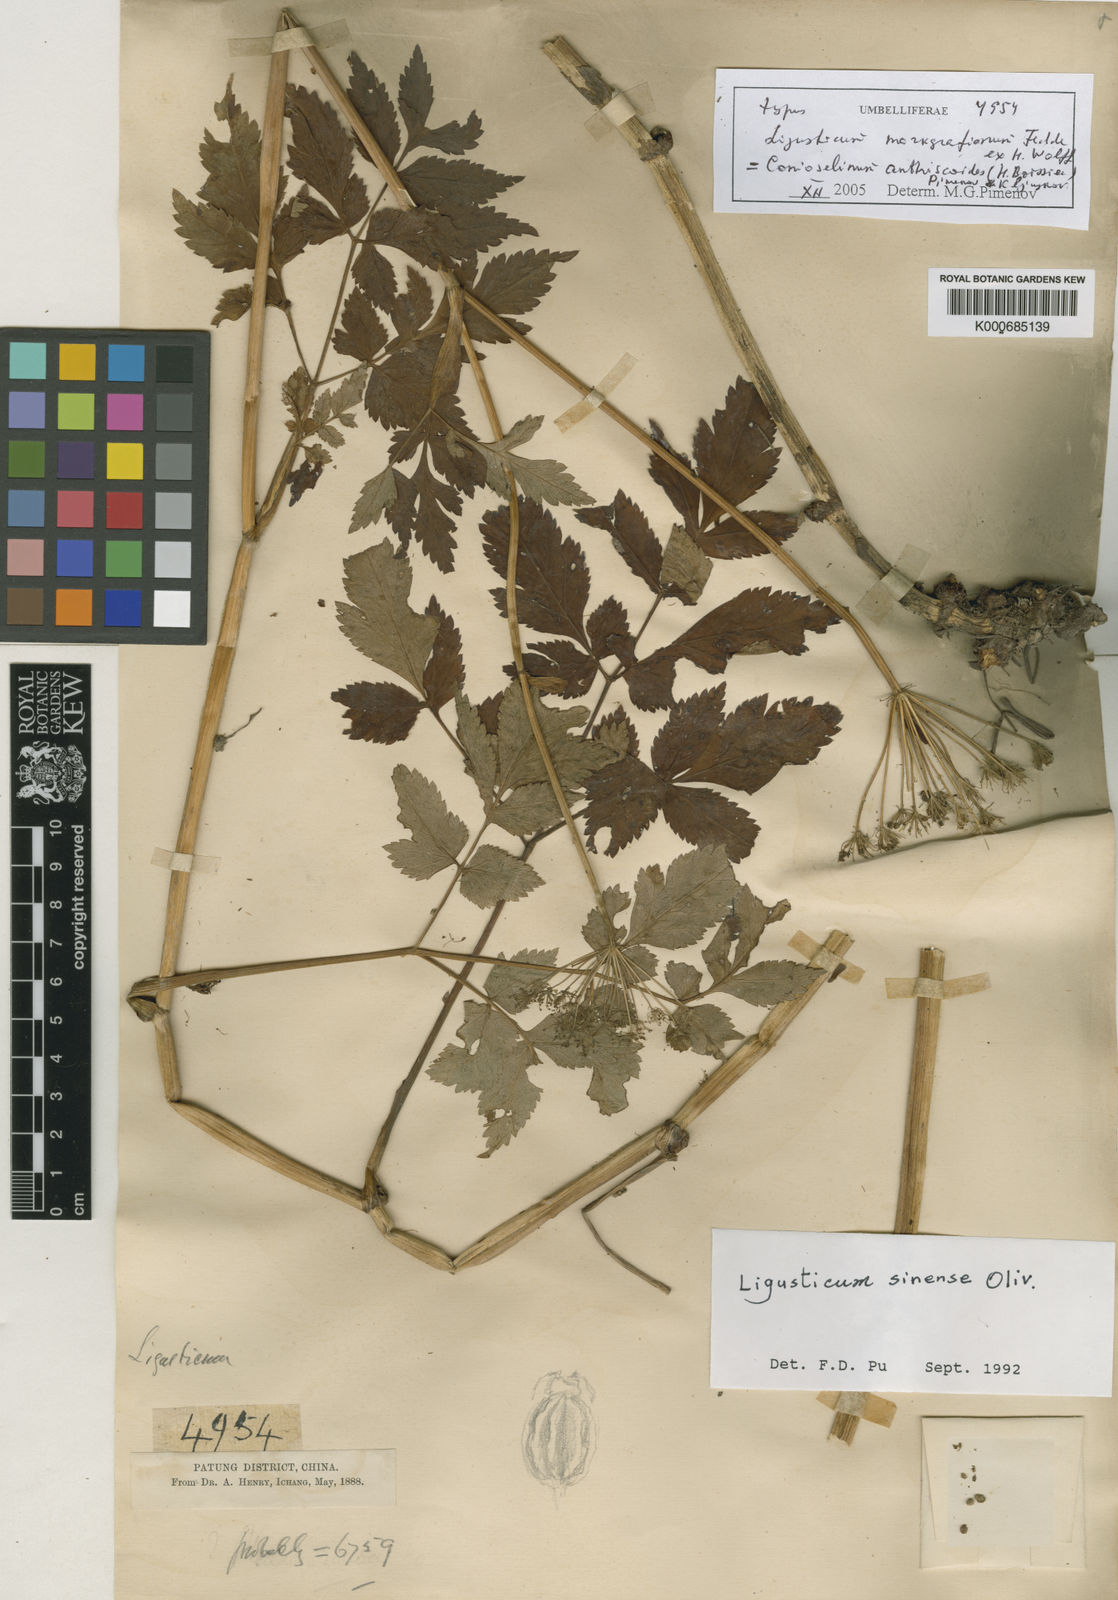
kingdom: Plantae
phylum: Tracheophyta
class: Magnoliopsida
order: Apiales
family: Apiaceae
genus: Conioselinum
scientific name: Conioselinum anthriscoides
